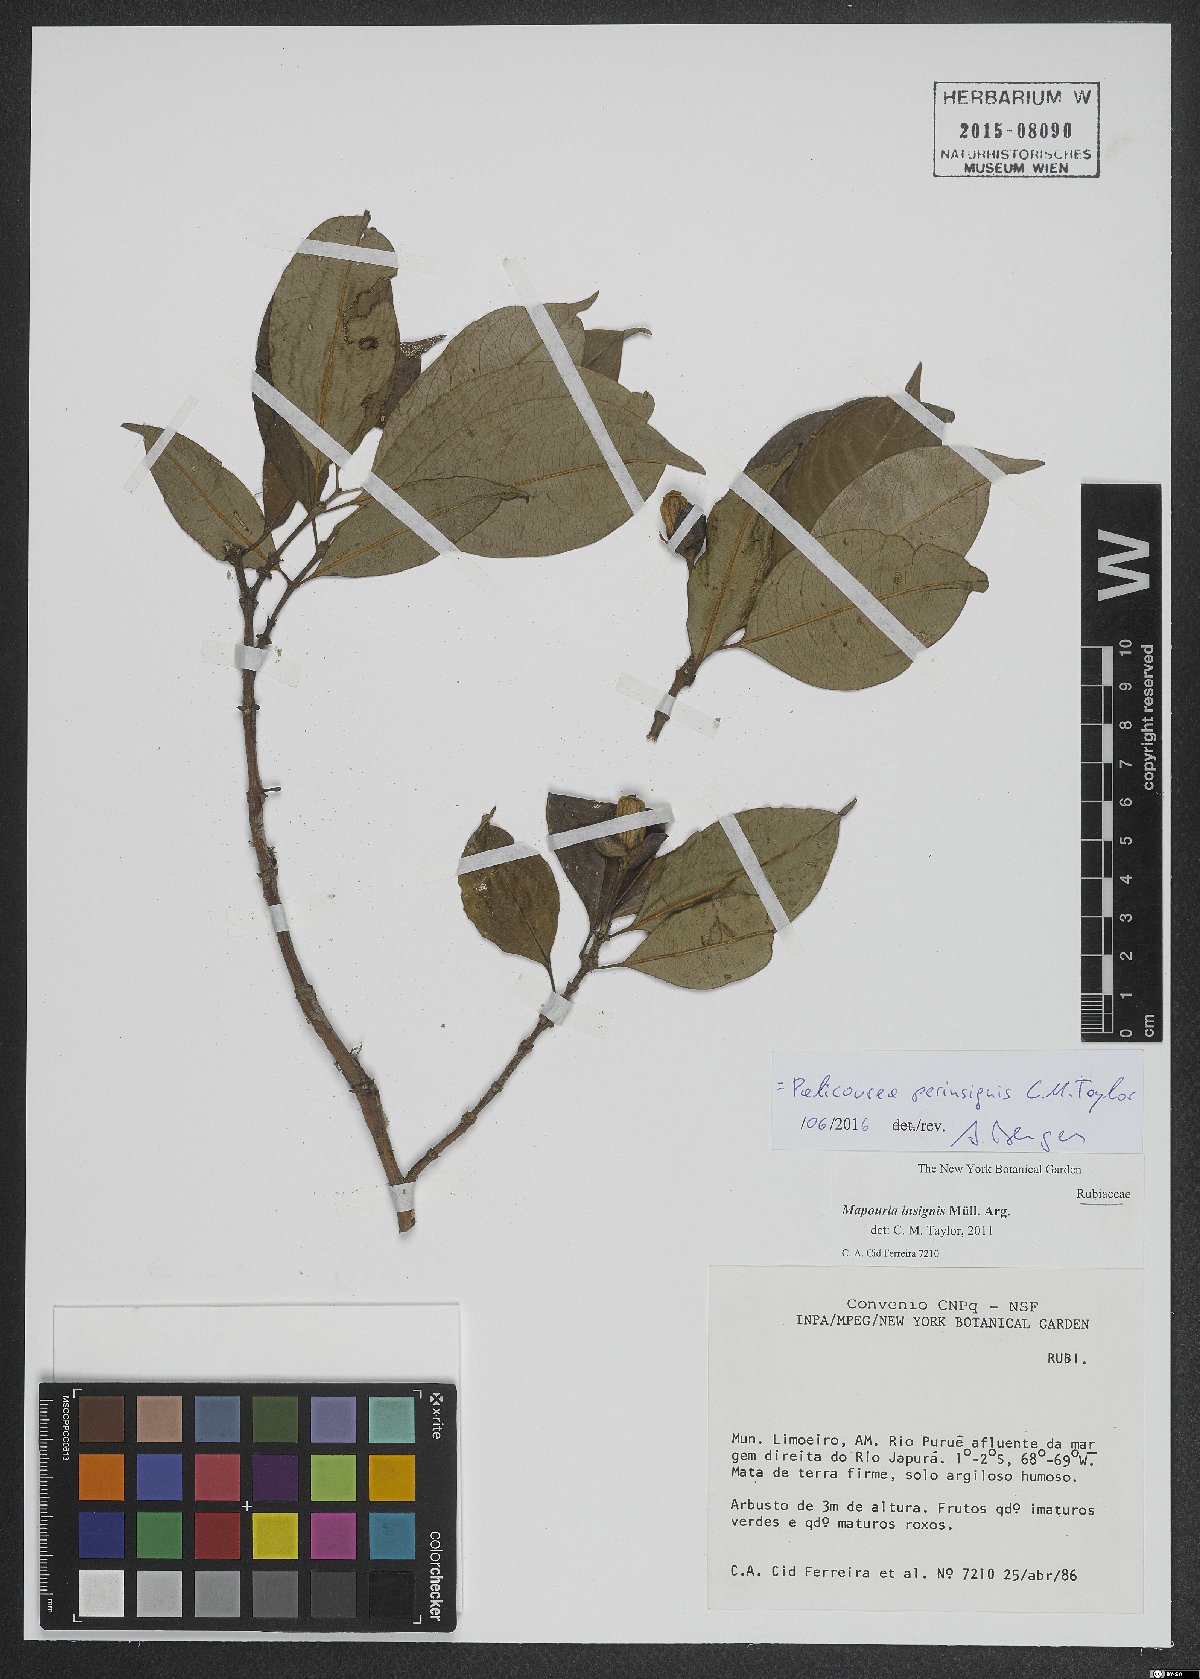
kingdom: Plantae
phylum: Tracheophyta
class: Magnoliopsida
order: Gentianales
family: Rubiaceae
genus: Palicourea
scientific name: Palicourea perinsignis
